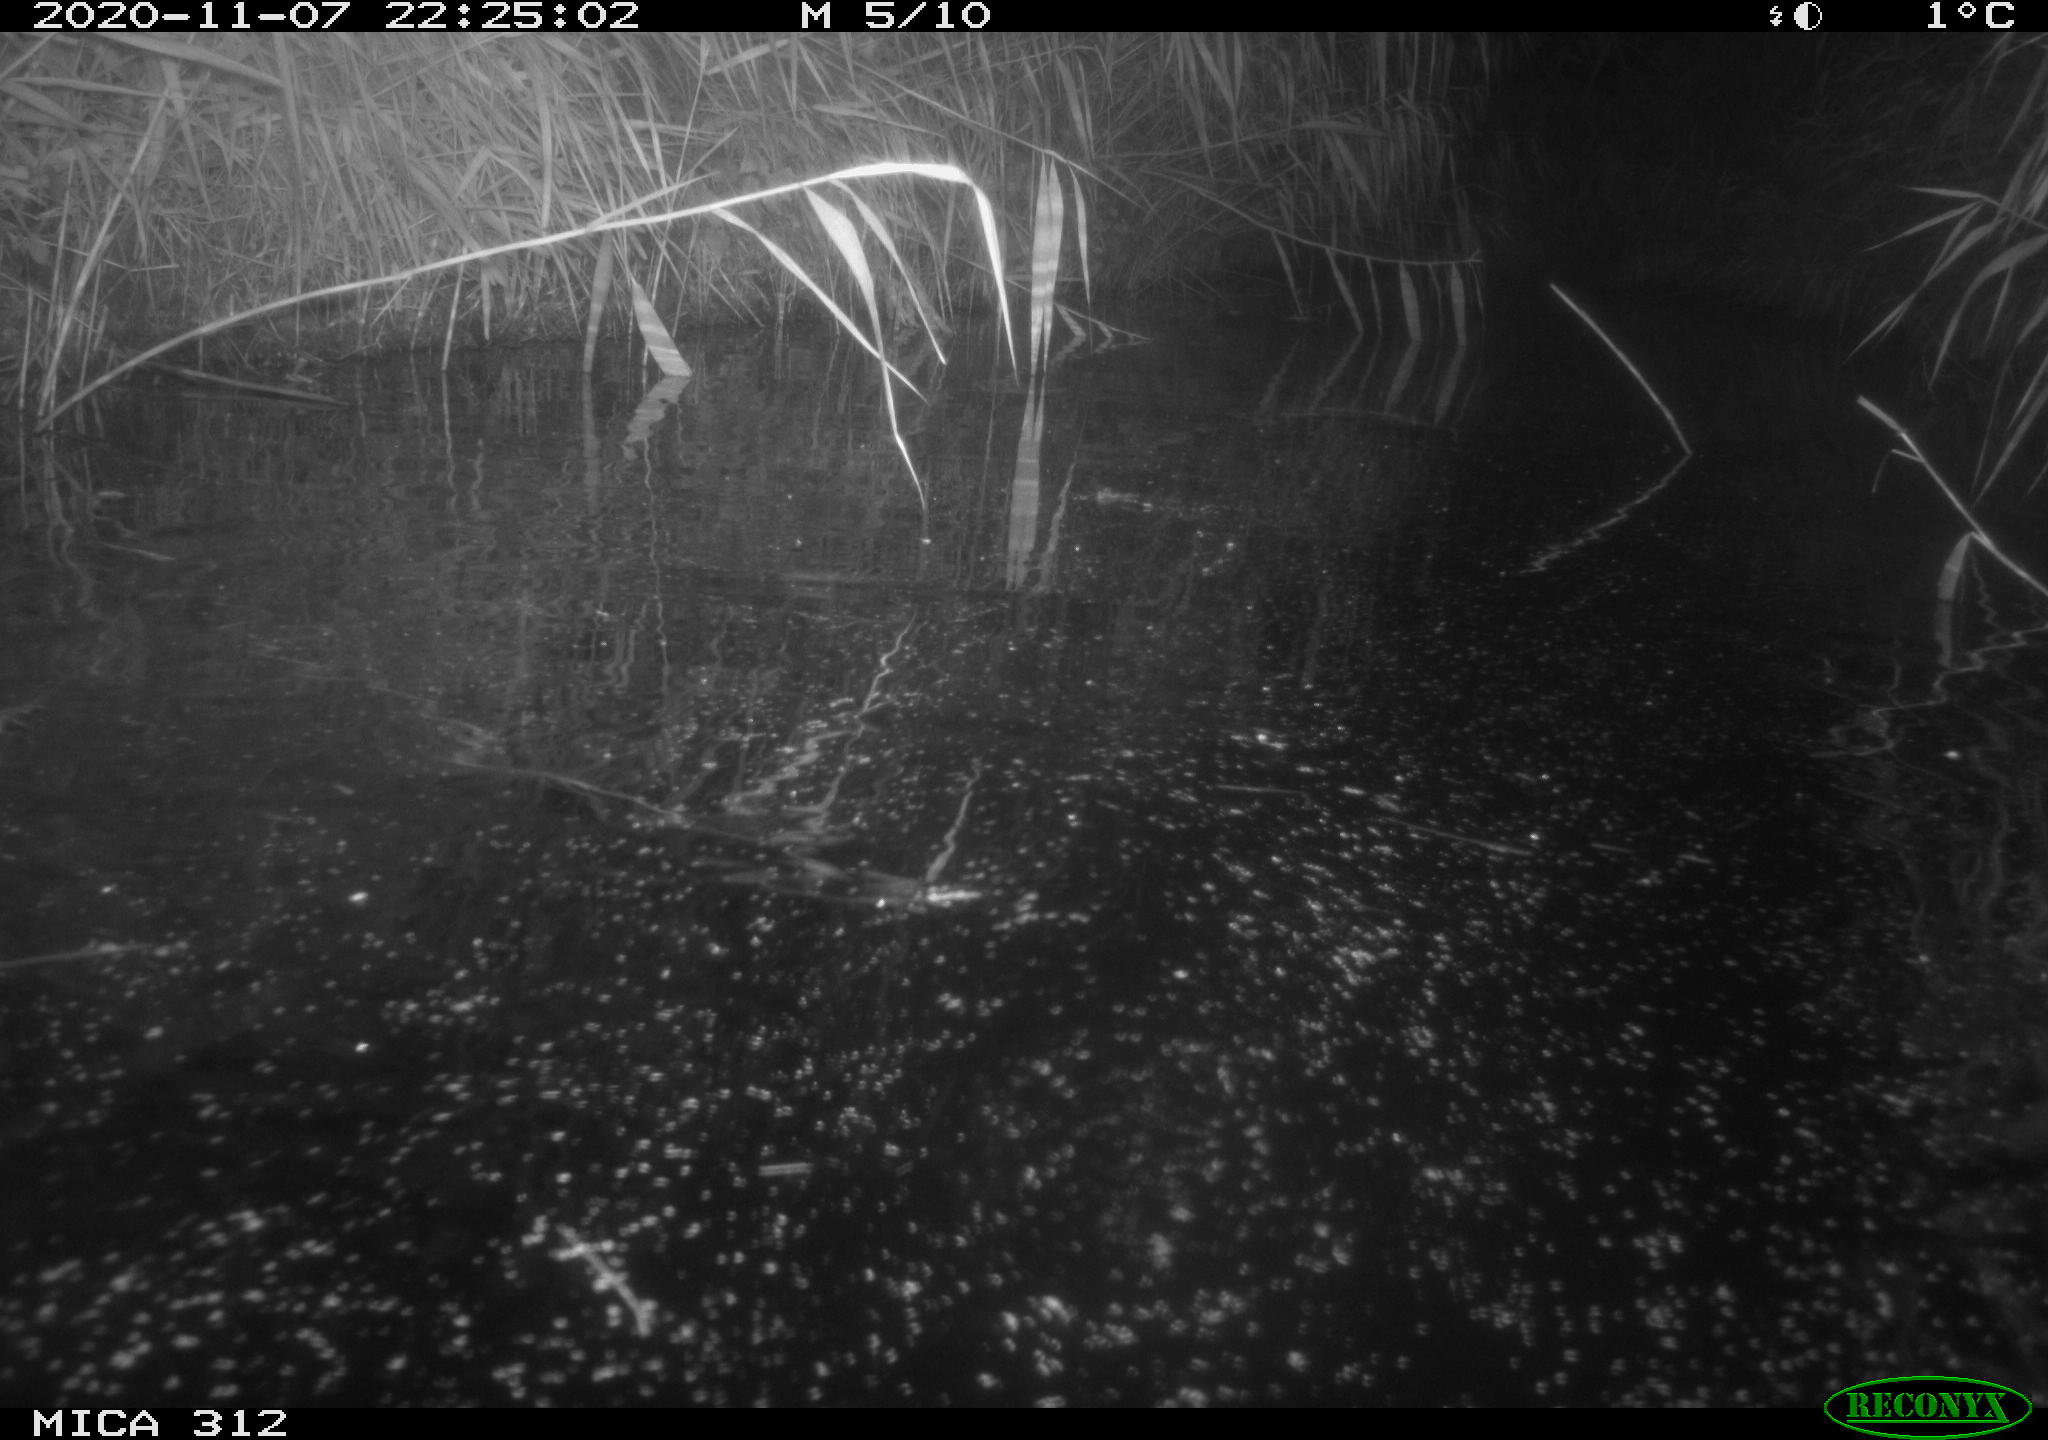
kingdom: Animalia
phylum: Chordata
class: Mammalia
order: Rodentia
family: Muridae
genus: Rattus
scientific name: Rattus norvegicus
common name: Brown rat
